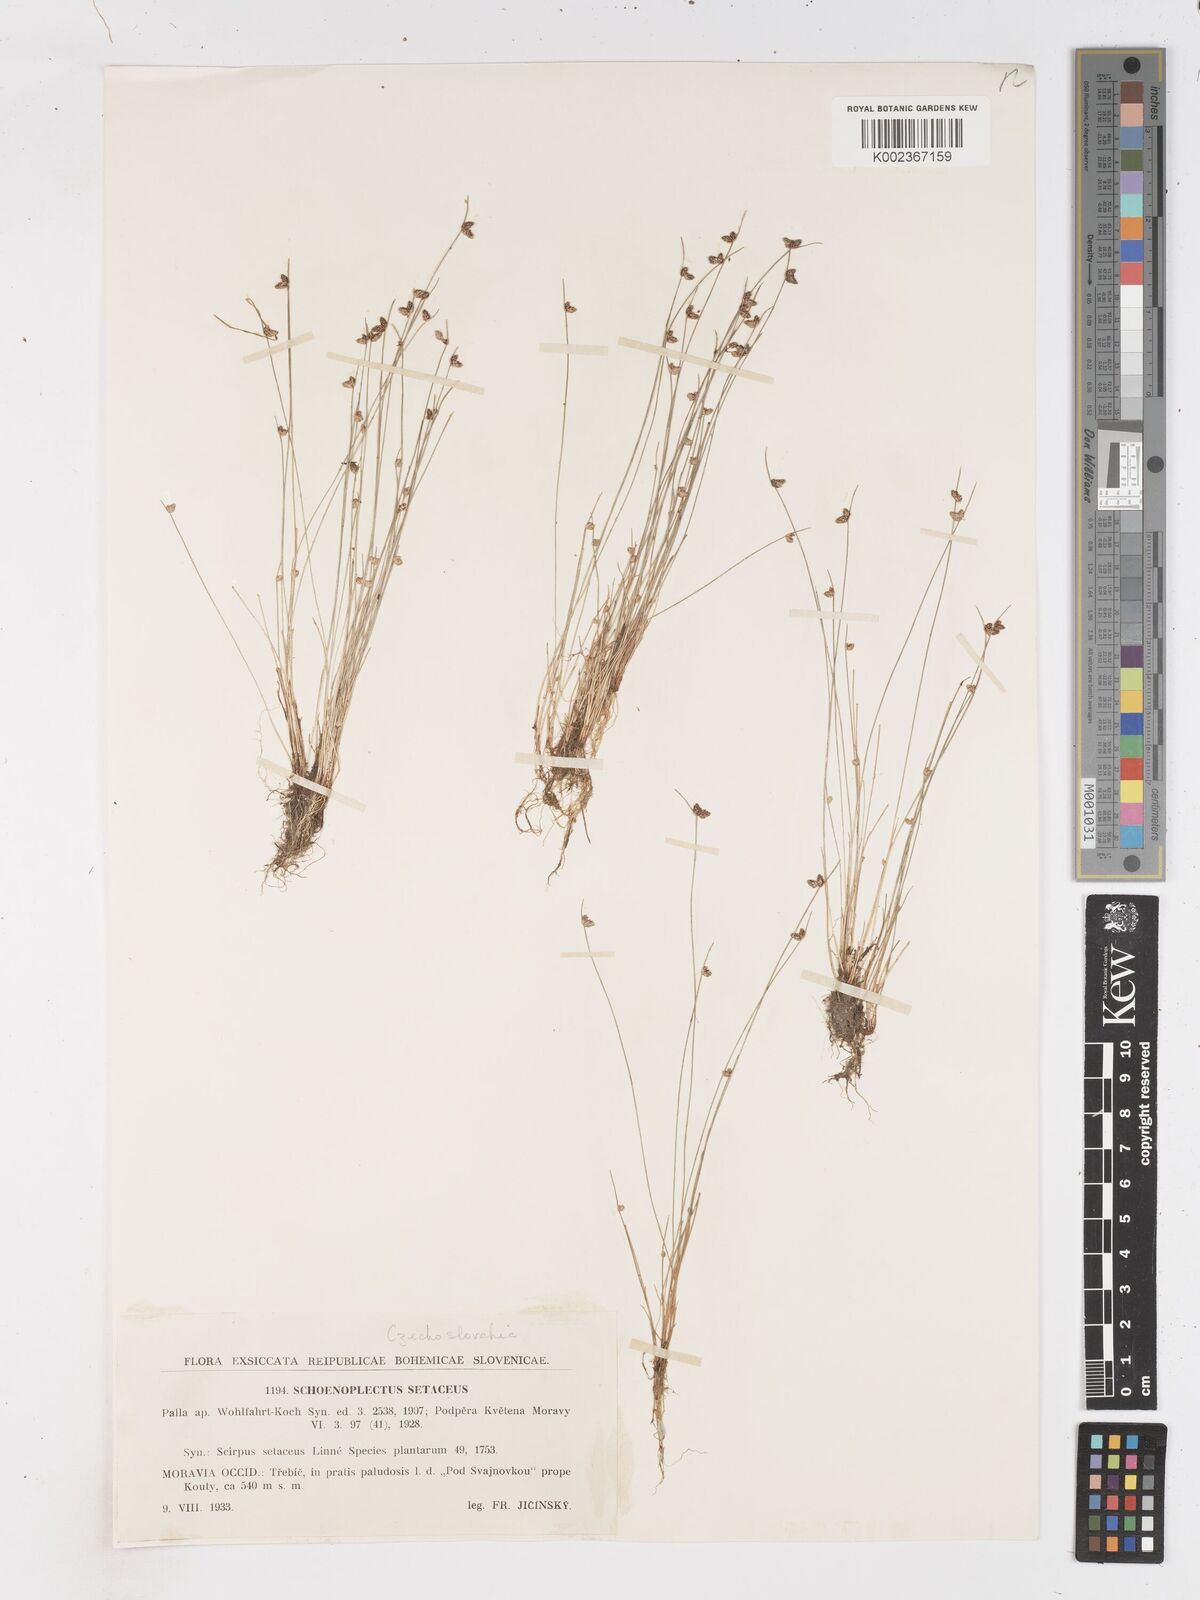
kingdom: Plantae
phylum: Tracheophyta
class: Liliopsida
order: Poales
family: Cyperaceae
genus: Isolepis
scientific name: Isolepis setacea
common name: Bristle club-rush
